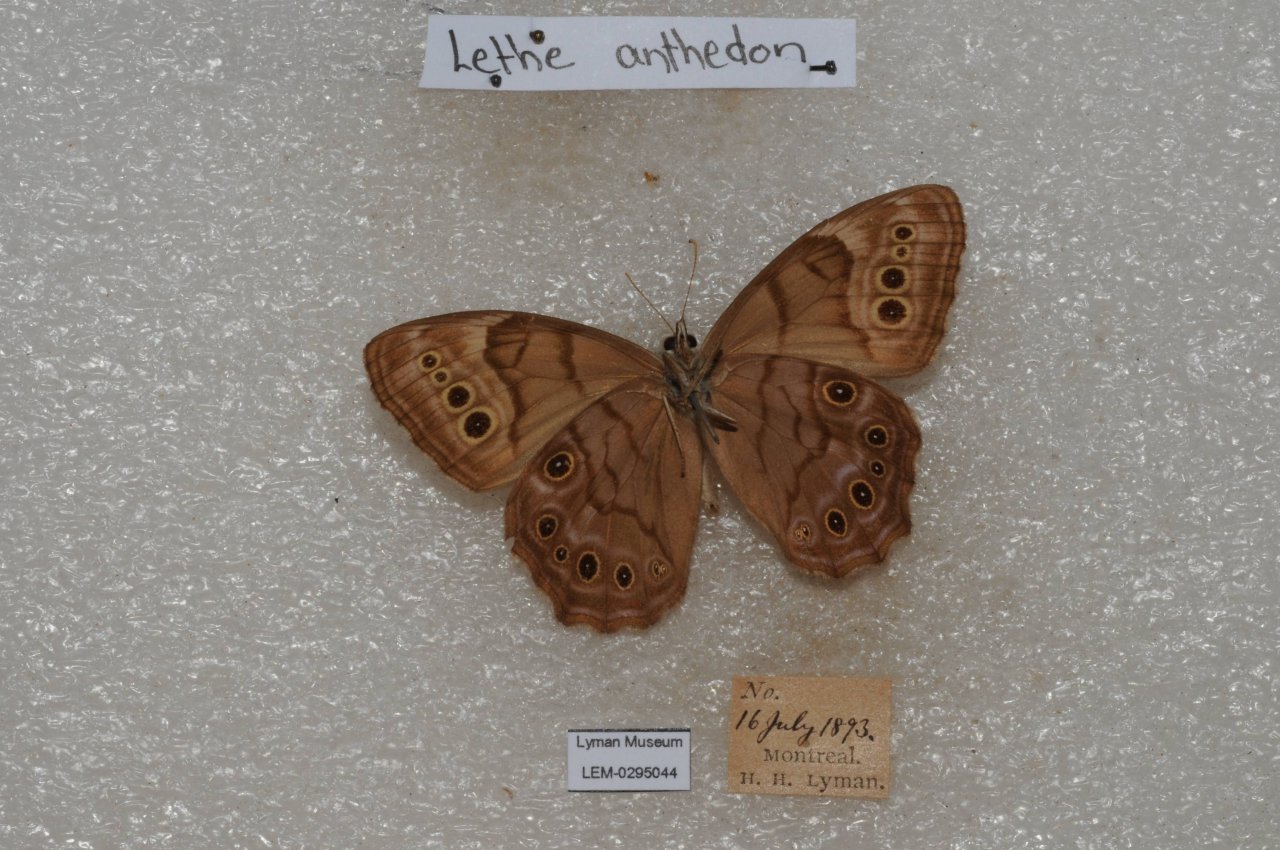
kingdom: Animalia
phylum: Arthropoda
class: Insecta
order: Lepidoptera
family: Nymphalidae
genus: Lethe
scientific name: Lethe anthedon
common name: Northern Pearly-Eye
